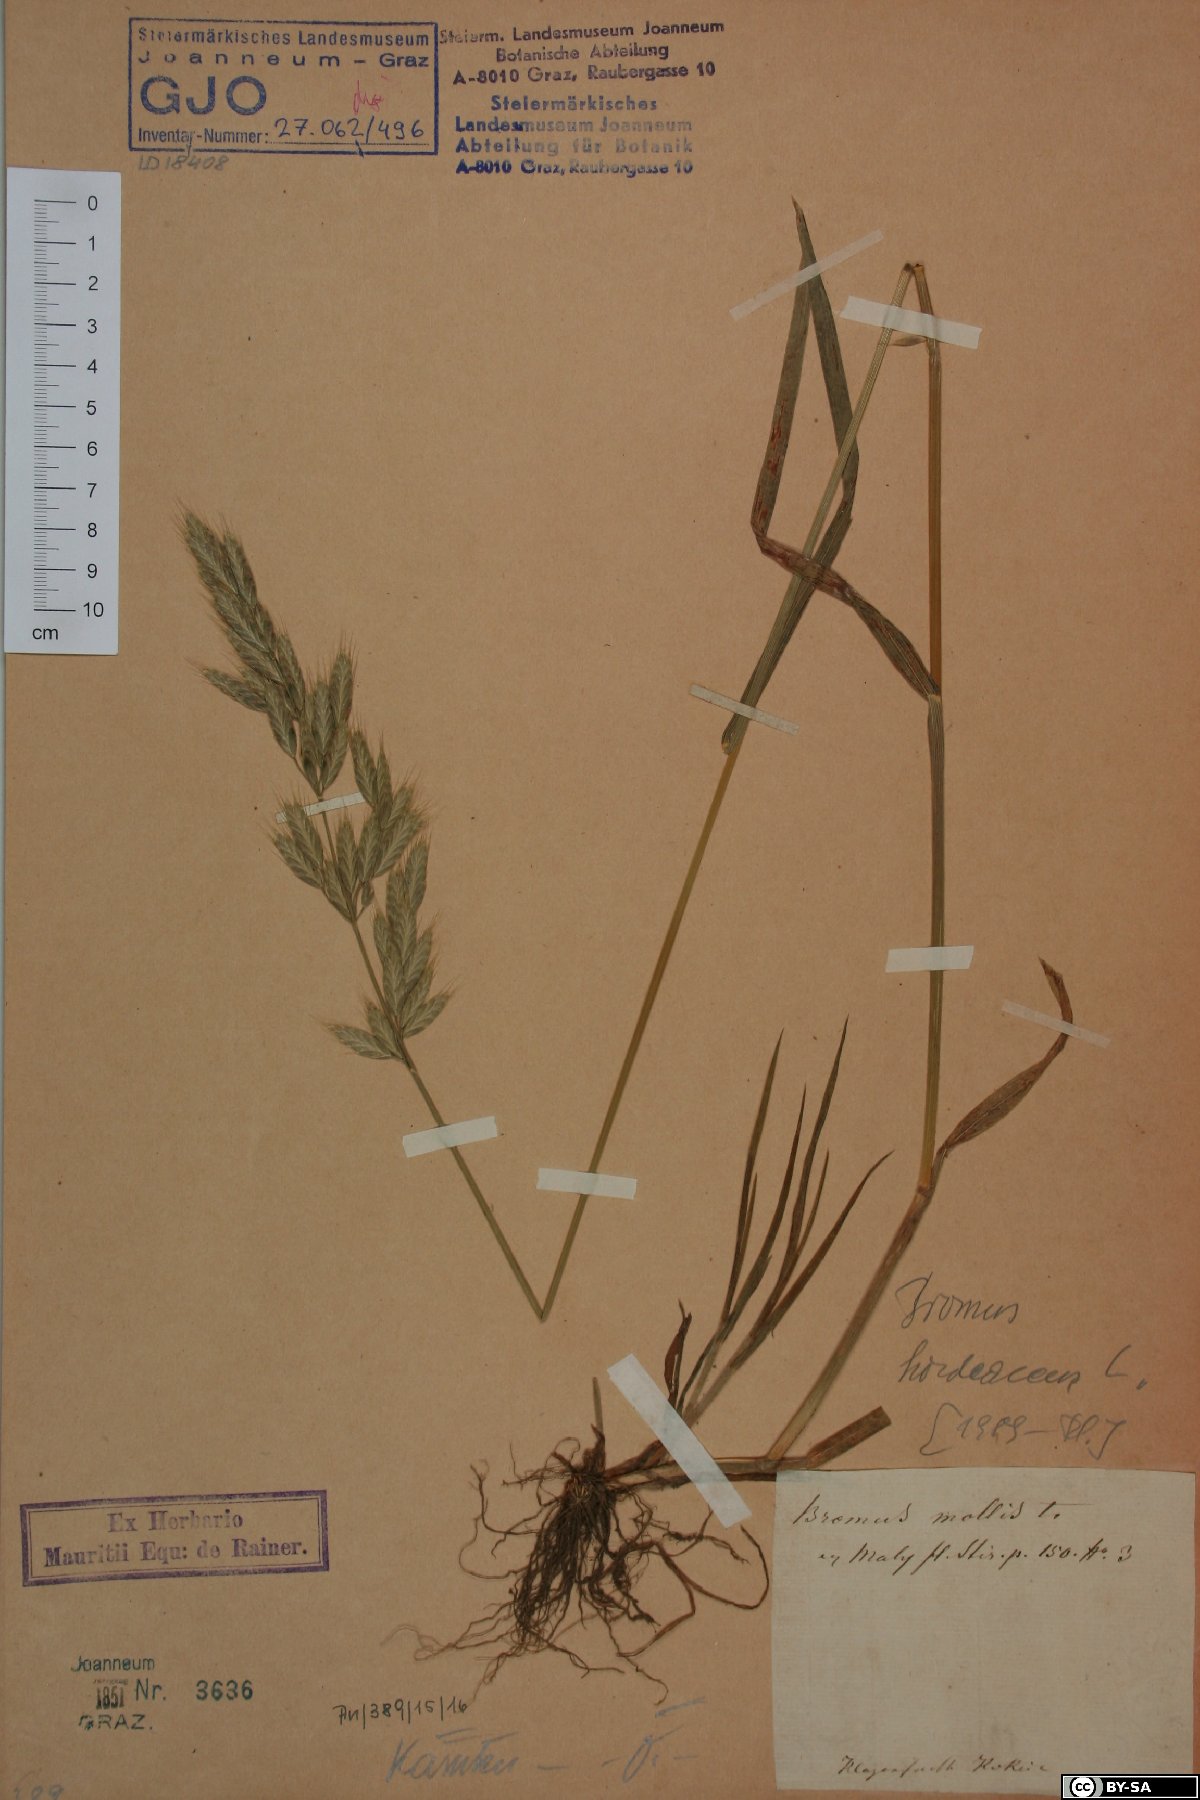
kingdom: Plantae
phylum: Tracheophyta
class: Liliopsida
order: Poales
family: Poaceae
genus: Bromus
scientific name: Bromus hordeaceus
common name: Soft brome
